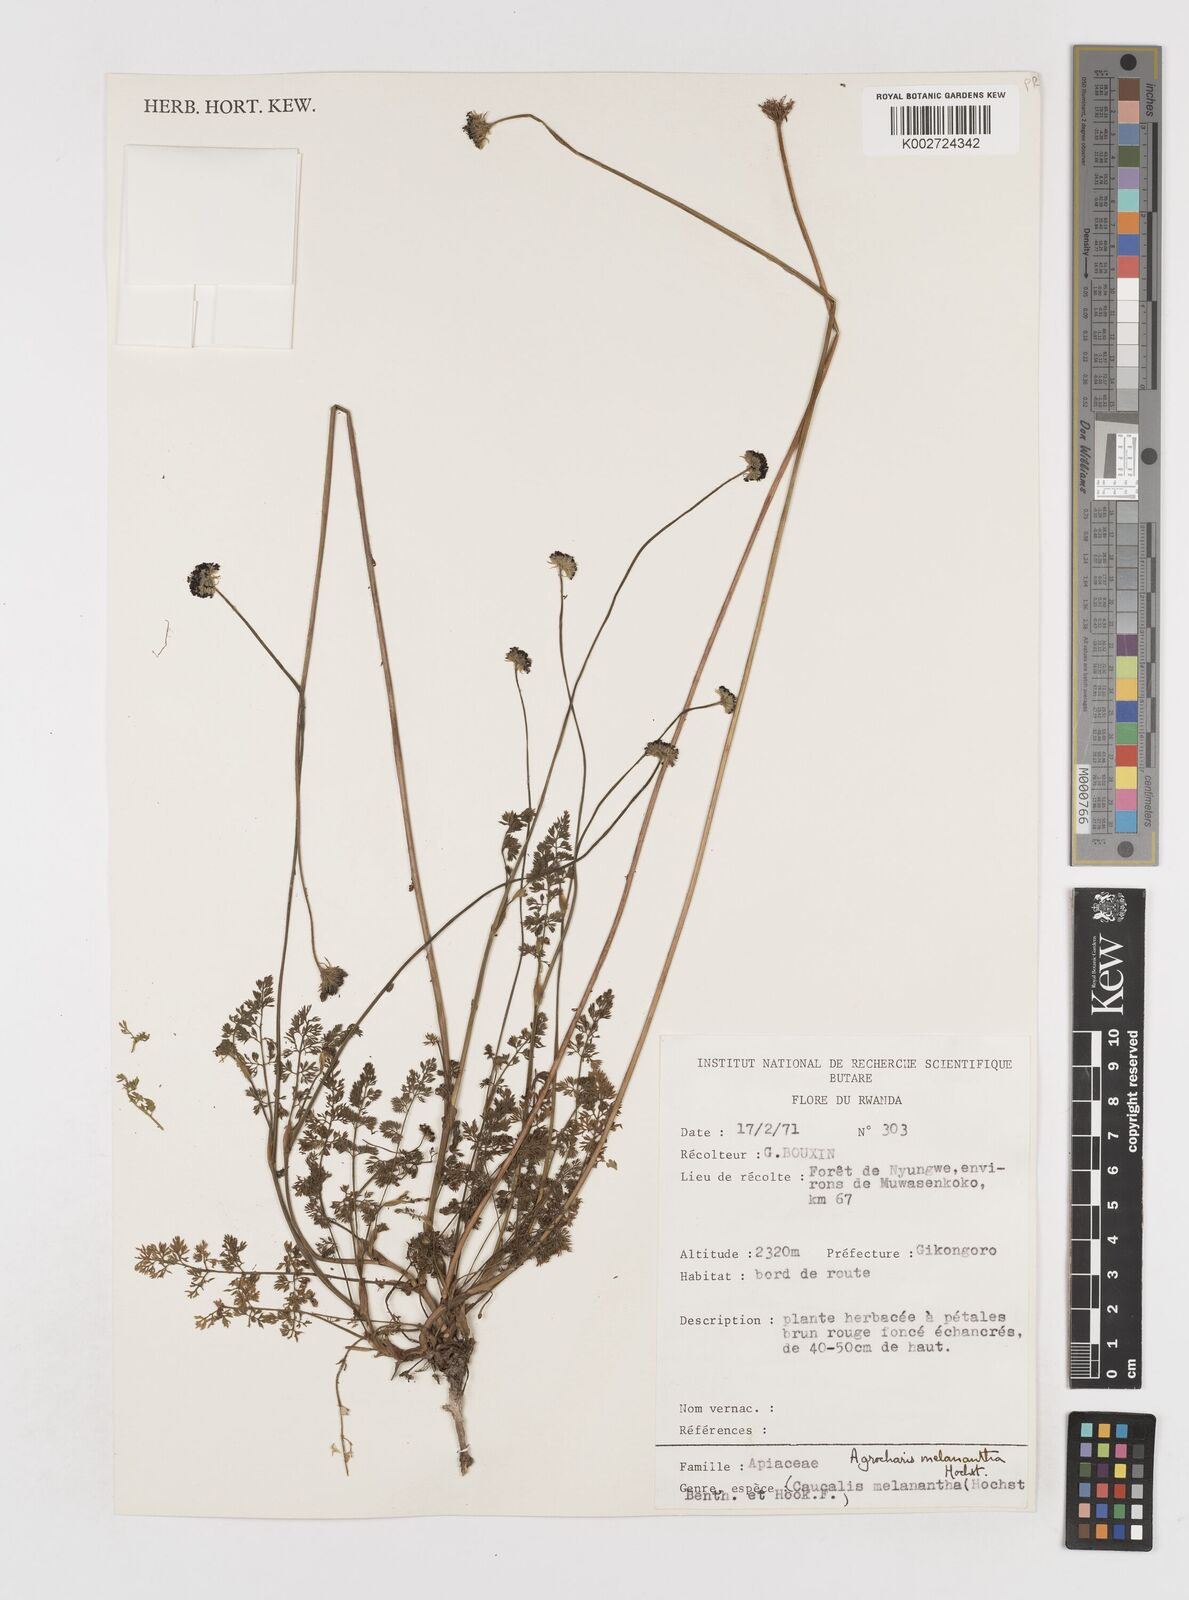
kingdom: Plantae
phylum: Tracheophyta
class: Magnoliopsida
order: Apiales
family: Apiaceae
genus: Daucus
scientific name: Daucus melananthus
